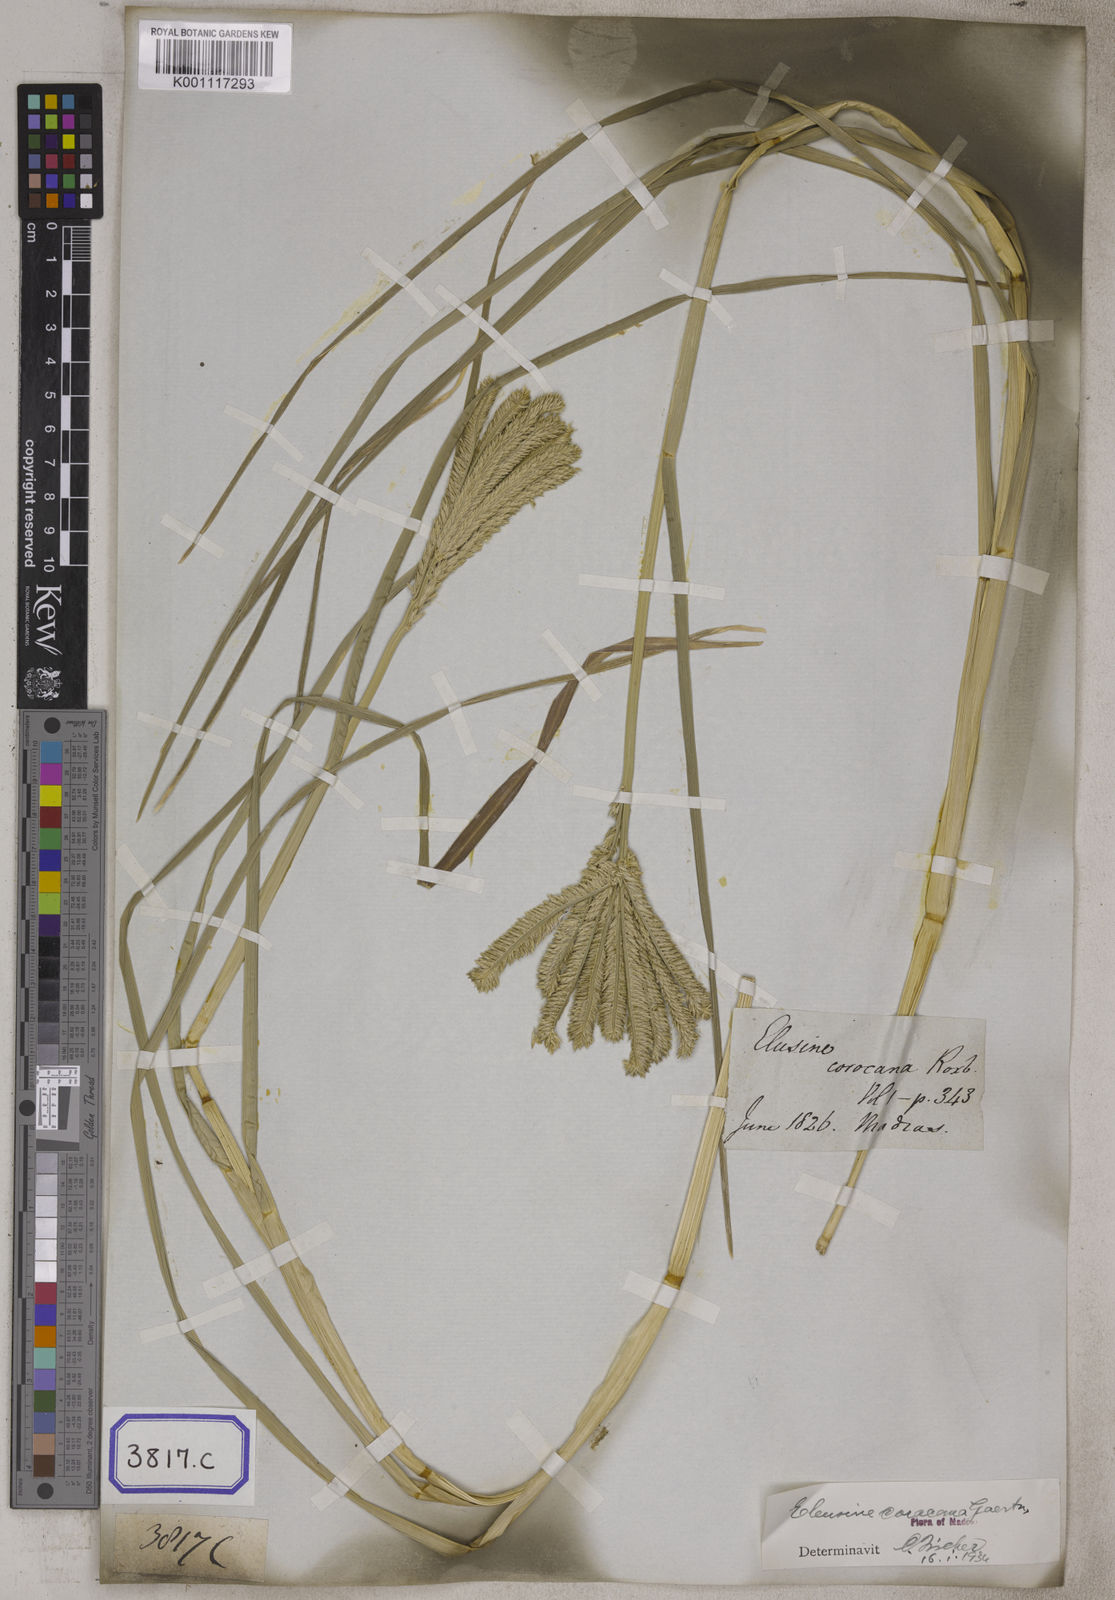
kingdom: Plantae
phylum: Tracheophyta
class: Liliopsida
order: Poales
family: Poaceae
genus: Eleusine
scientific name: Eleusine
